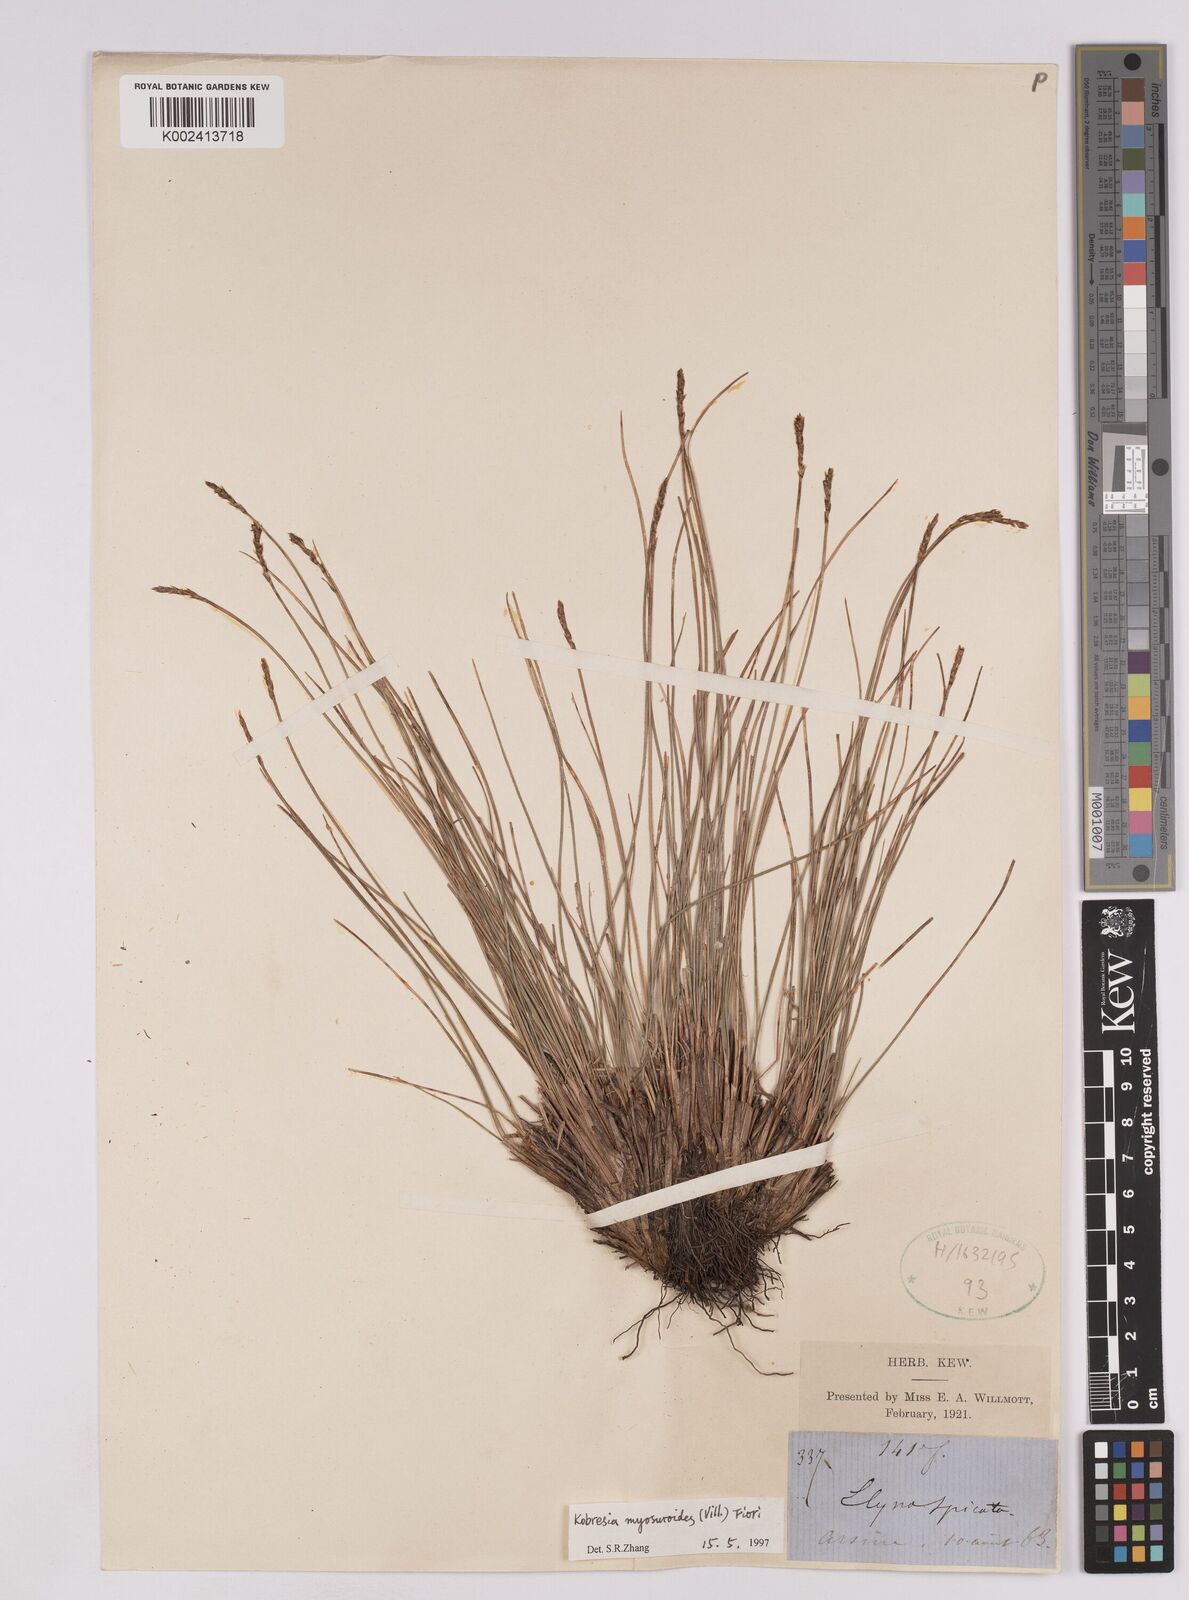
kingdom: Plantae
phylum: Tracheophyta
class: Liliopsida
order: Poales
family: Cyperaceae
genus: Carex
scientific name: Carex myosuroides
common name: Bellard's bog sedge
